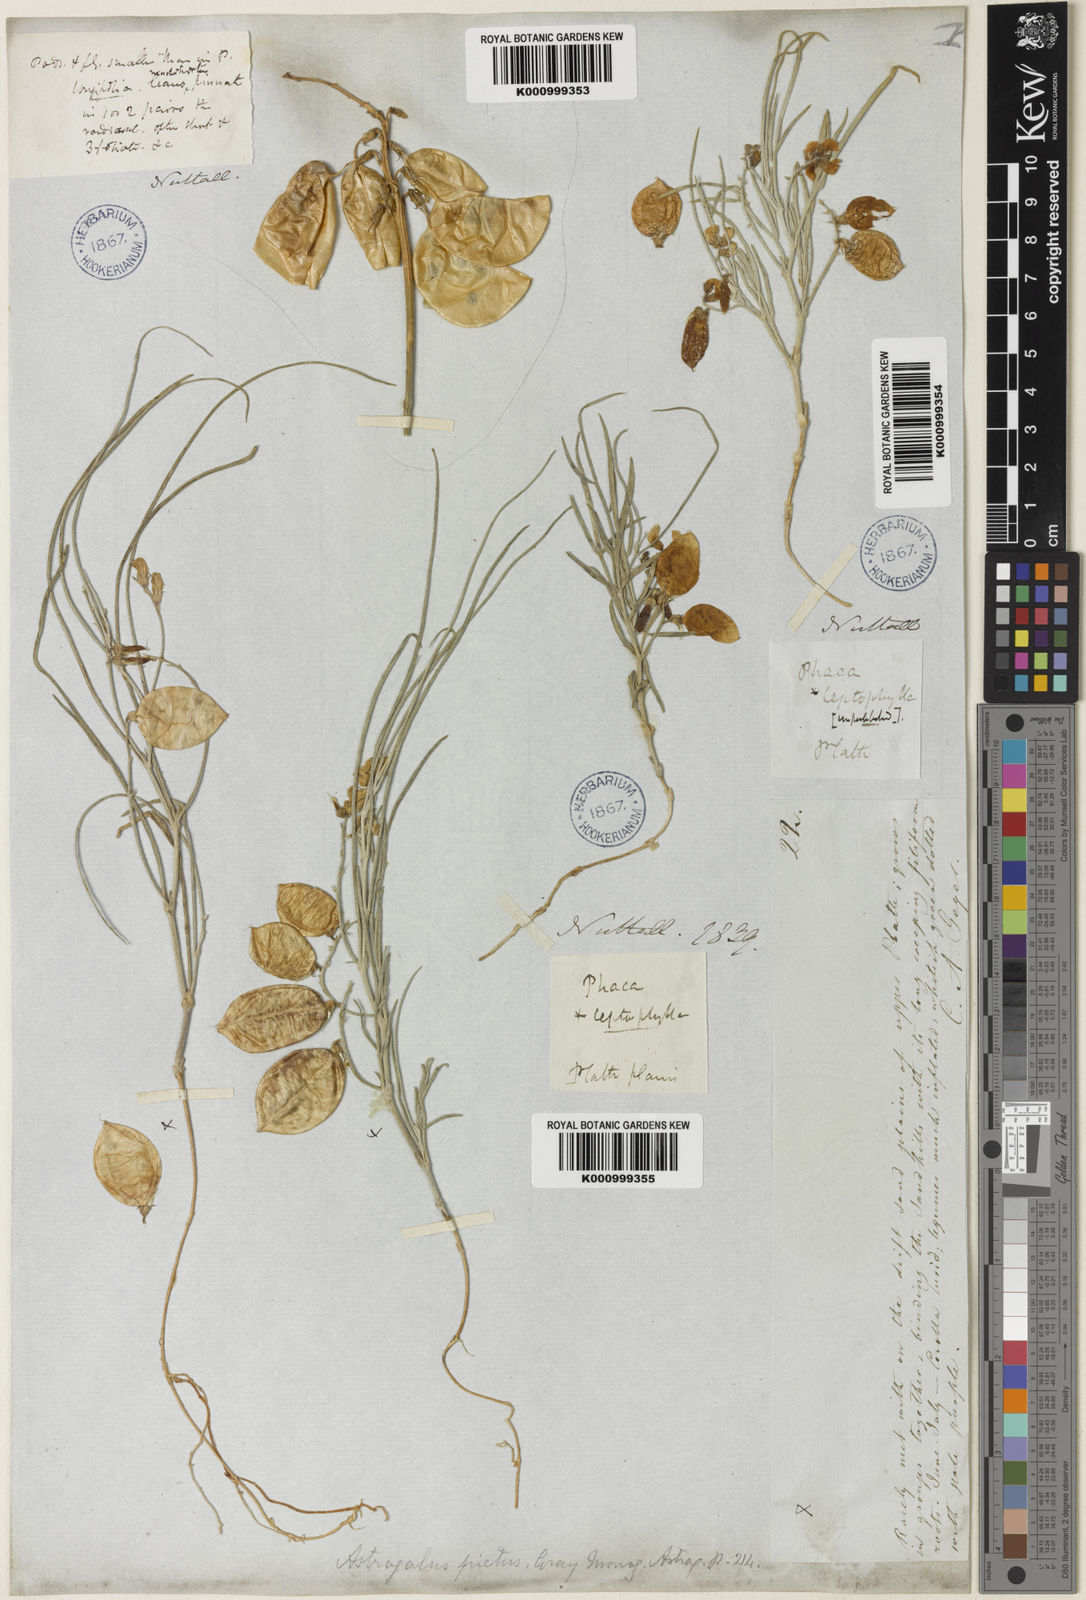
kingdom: Plantae
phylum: Tracheophyta
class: Magnoliopsida
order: Fabales
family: Fabaceae
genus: Astragalus
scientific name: Astragalus ceramicus
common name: Painted milk-vetch
